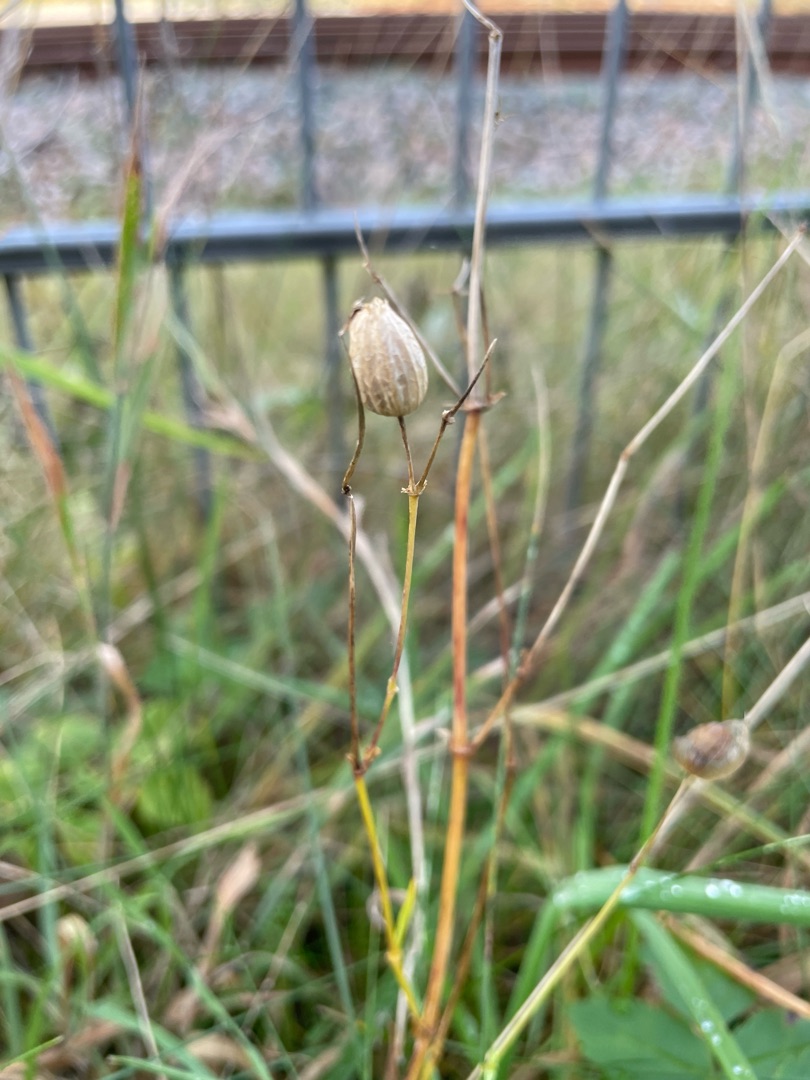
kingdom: Plantae
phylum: Tracheophyta
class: Magnoliopsida
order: Caryophyllales
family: Caryophyllaceae
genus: Silene
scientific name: Silene vulgaris
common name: Blæresmælde
